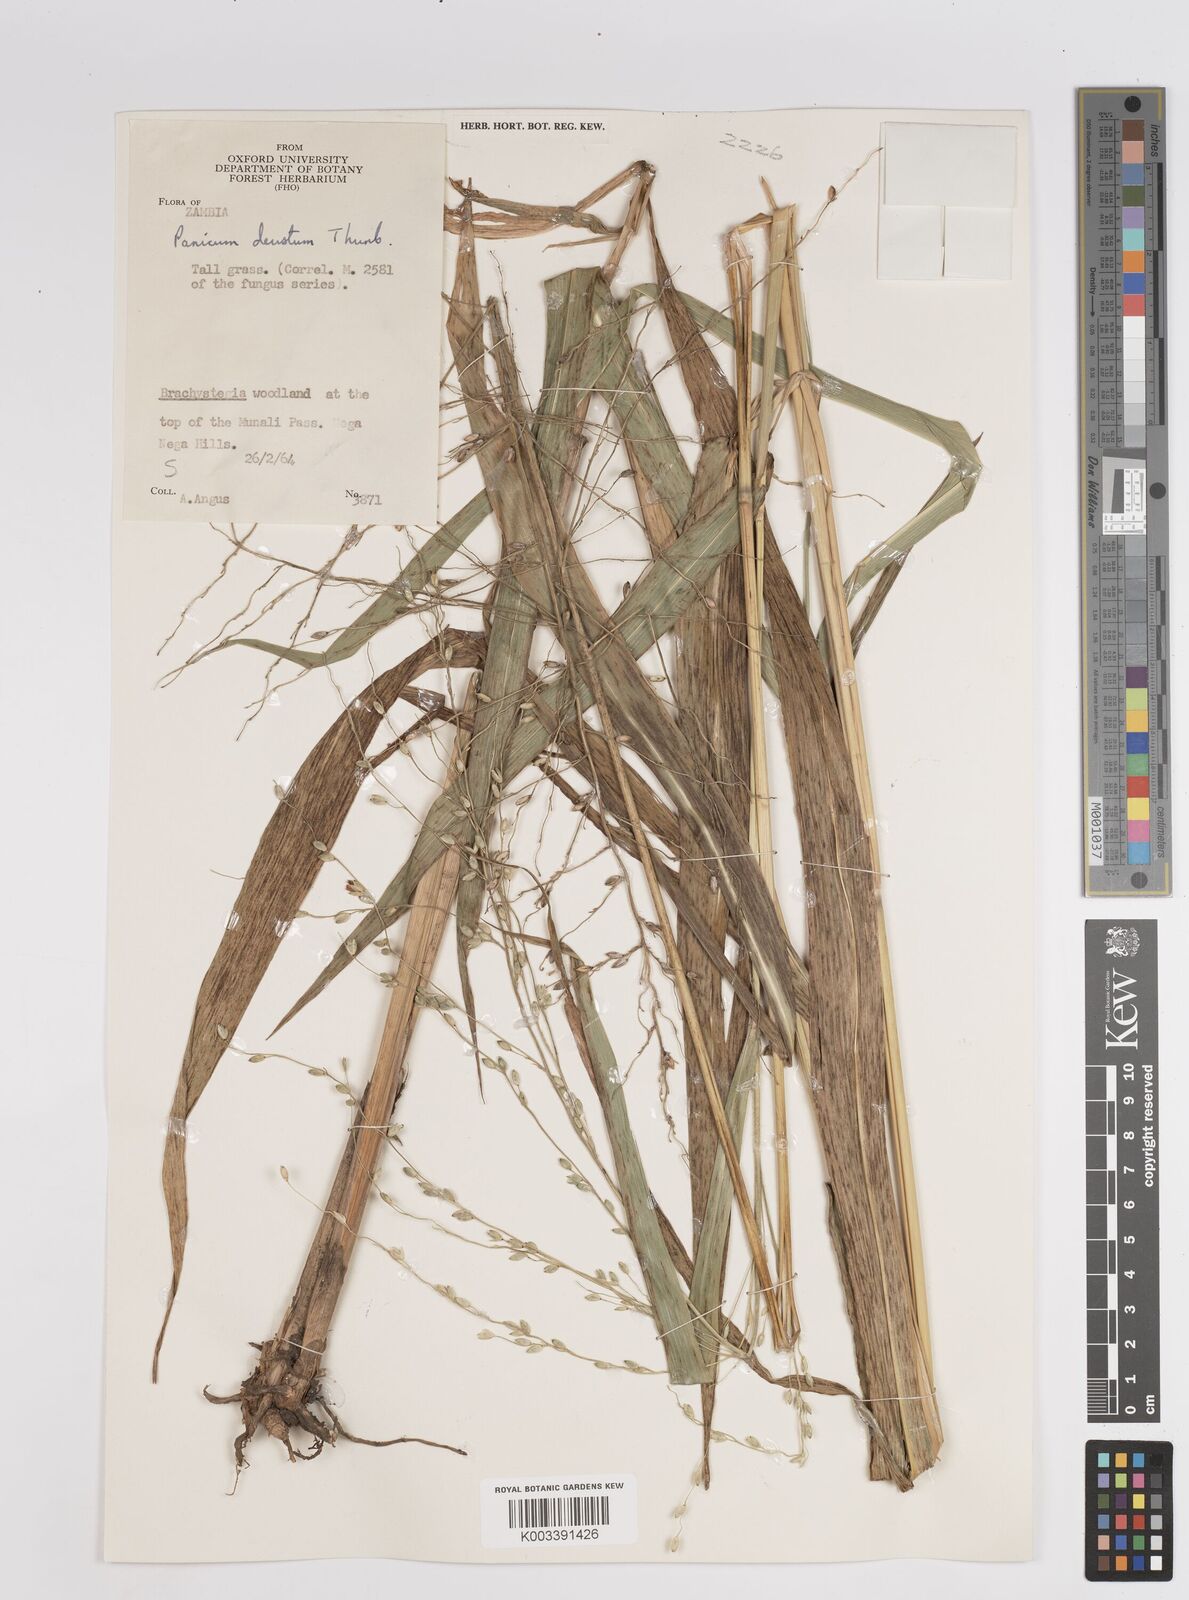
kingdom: Plantae
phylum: Tracheophyta
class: Liliopsida
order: Poales
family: Poaceae
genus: Panicum
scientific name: Panicum deustum
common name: Reed panicum
